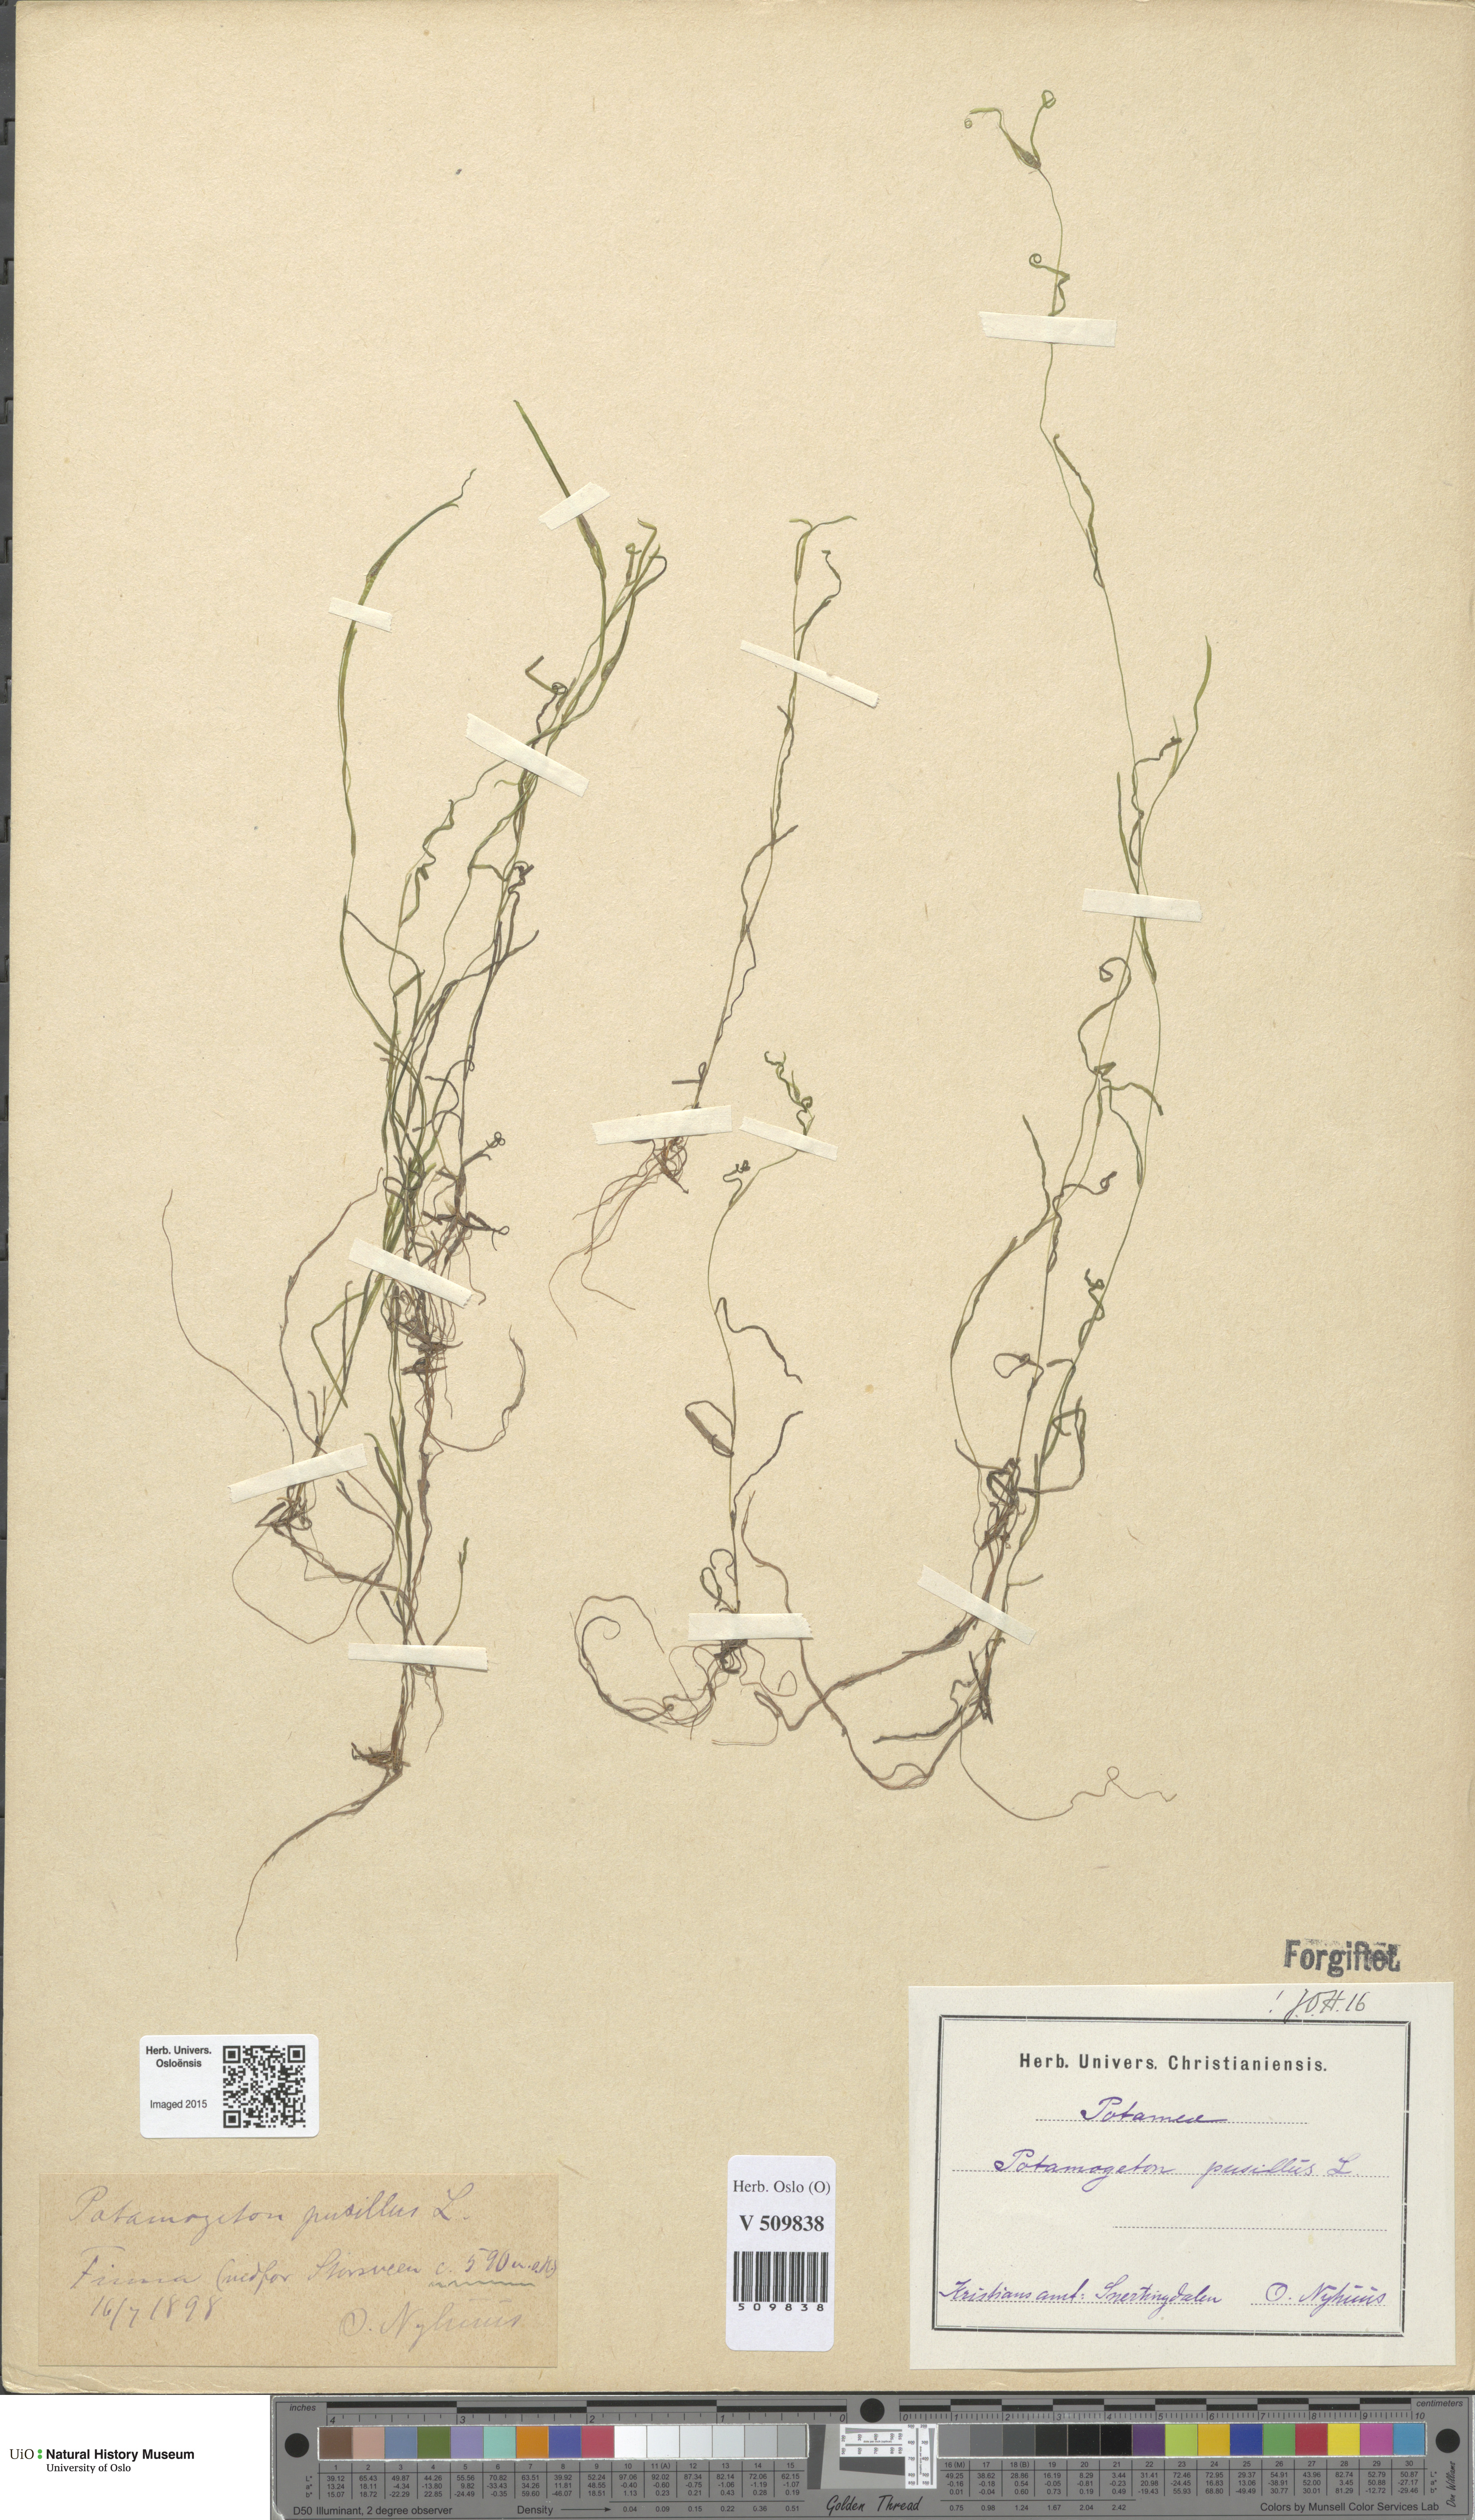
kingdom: Plantae
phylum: Tracheophyta
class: Liliopsida
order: Alismatales
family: Potamogetonaceae
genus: Potamogeton
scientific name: Potamogeton berchtoldii
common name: Small pondweed
